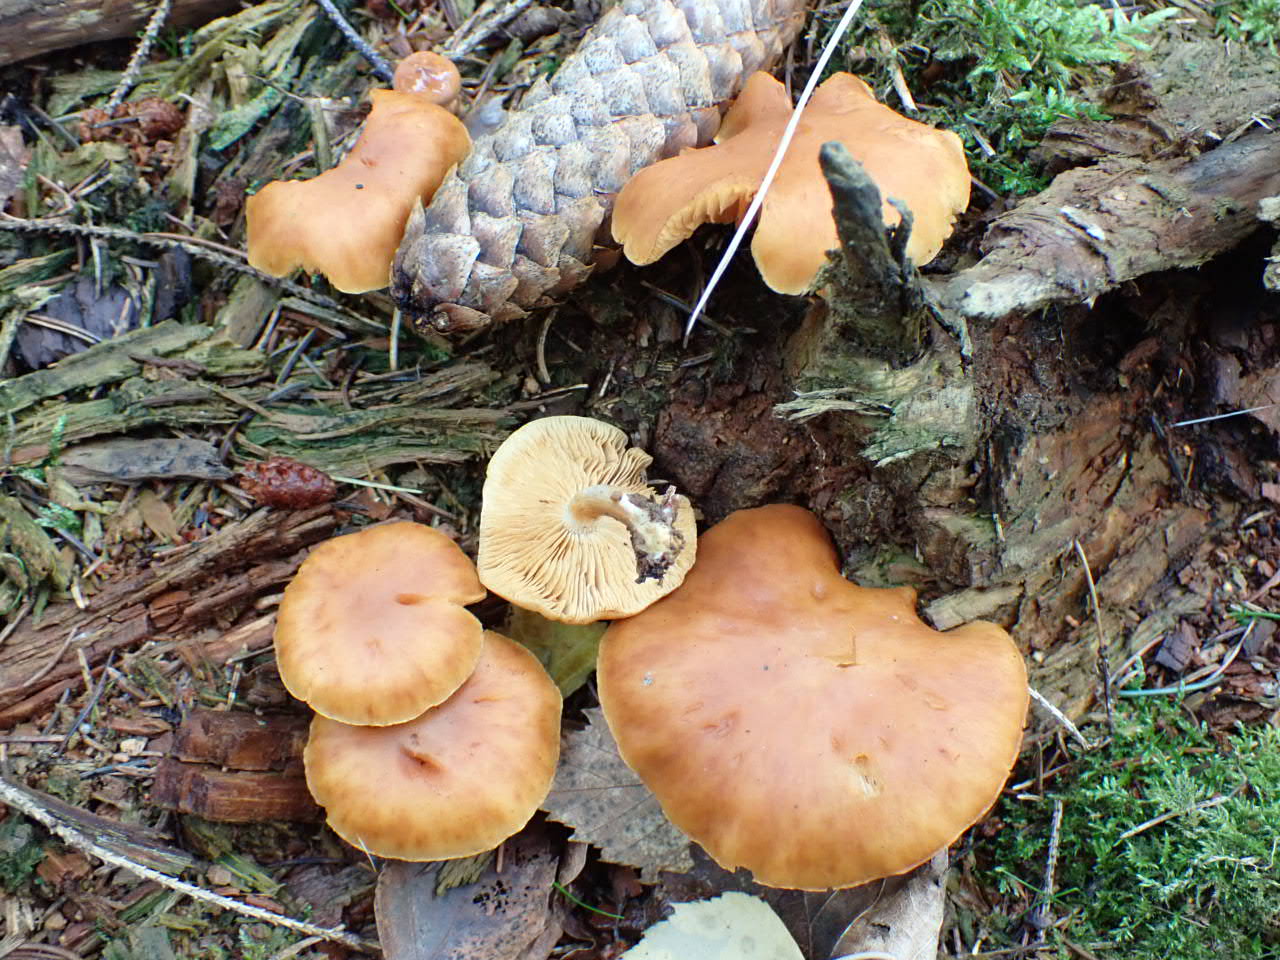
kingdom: Fungi
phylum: Basidiomycota
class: Agaricomycetes
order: Agaricales
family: Hymenogastraceae
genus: Gymnopilus
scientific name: Gymnopilus penetrans
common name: plettet flammehat
